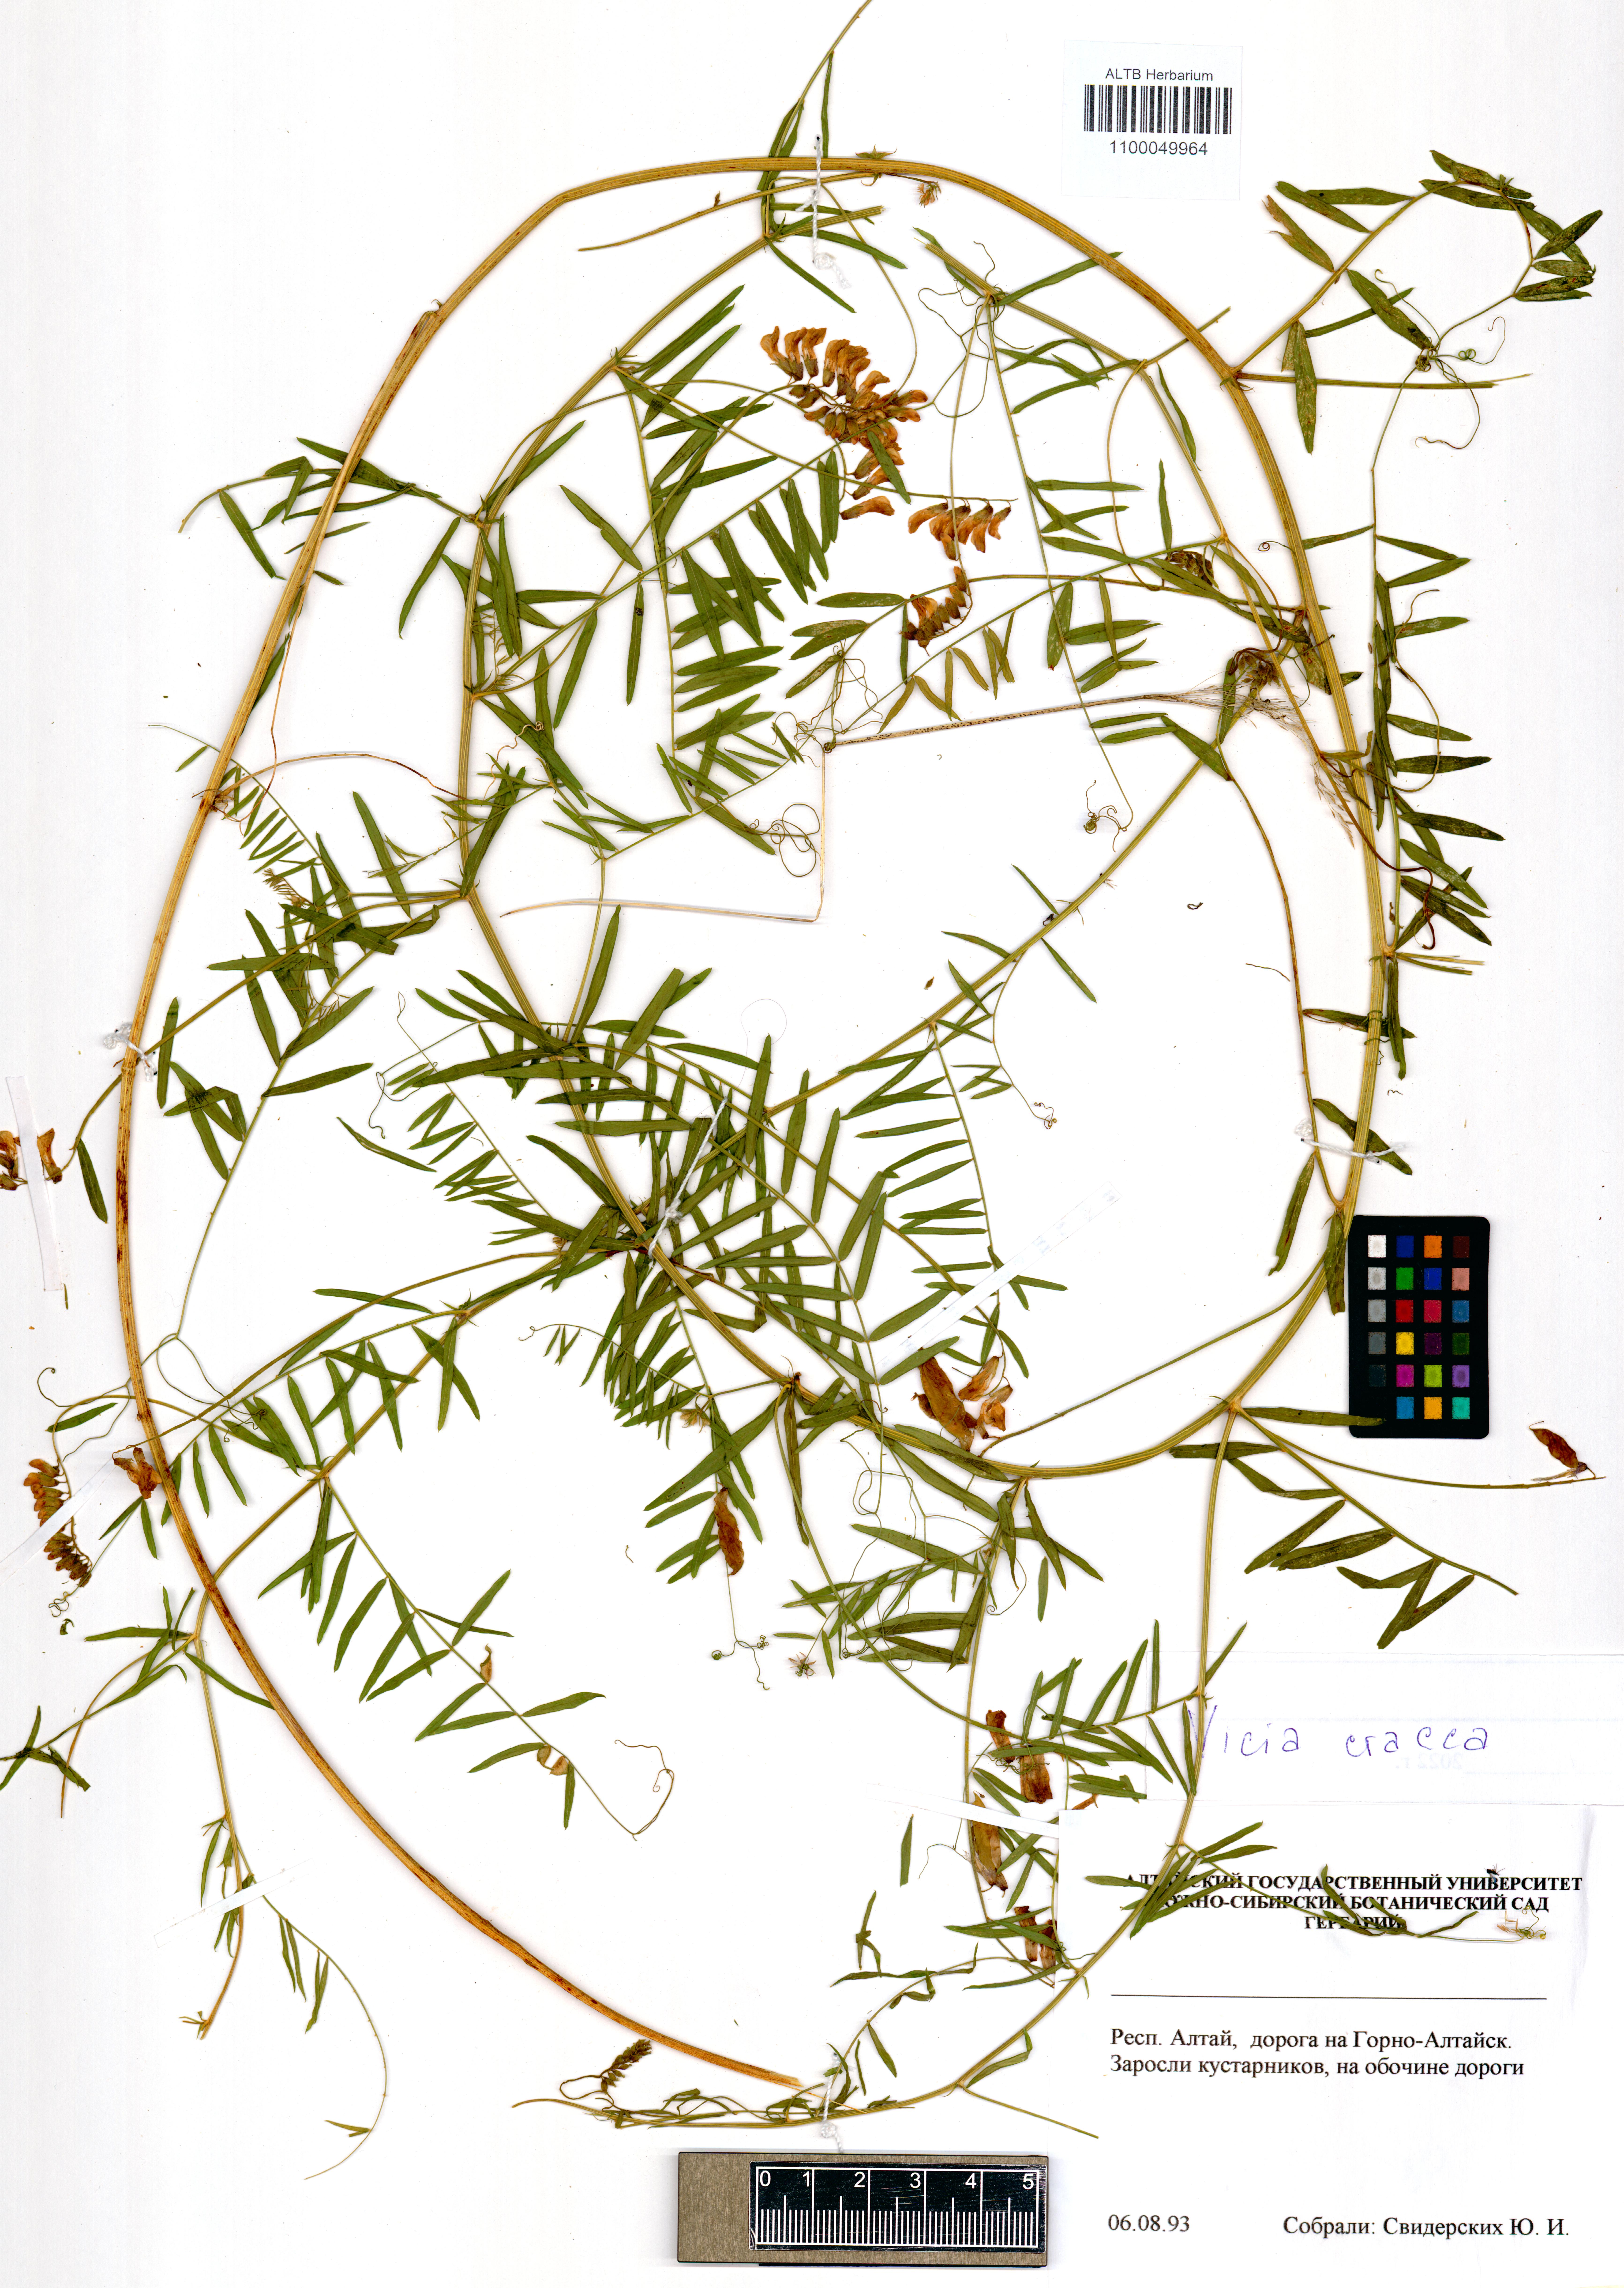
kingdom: Plantae
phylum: Tracheophyta
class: Magnoliopsida
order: Fabales
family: Fabaceae
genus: Vicia
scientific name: Vicia cracca
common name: Bird vetch
